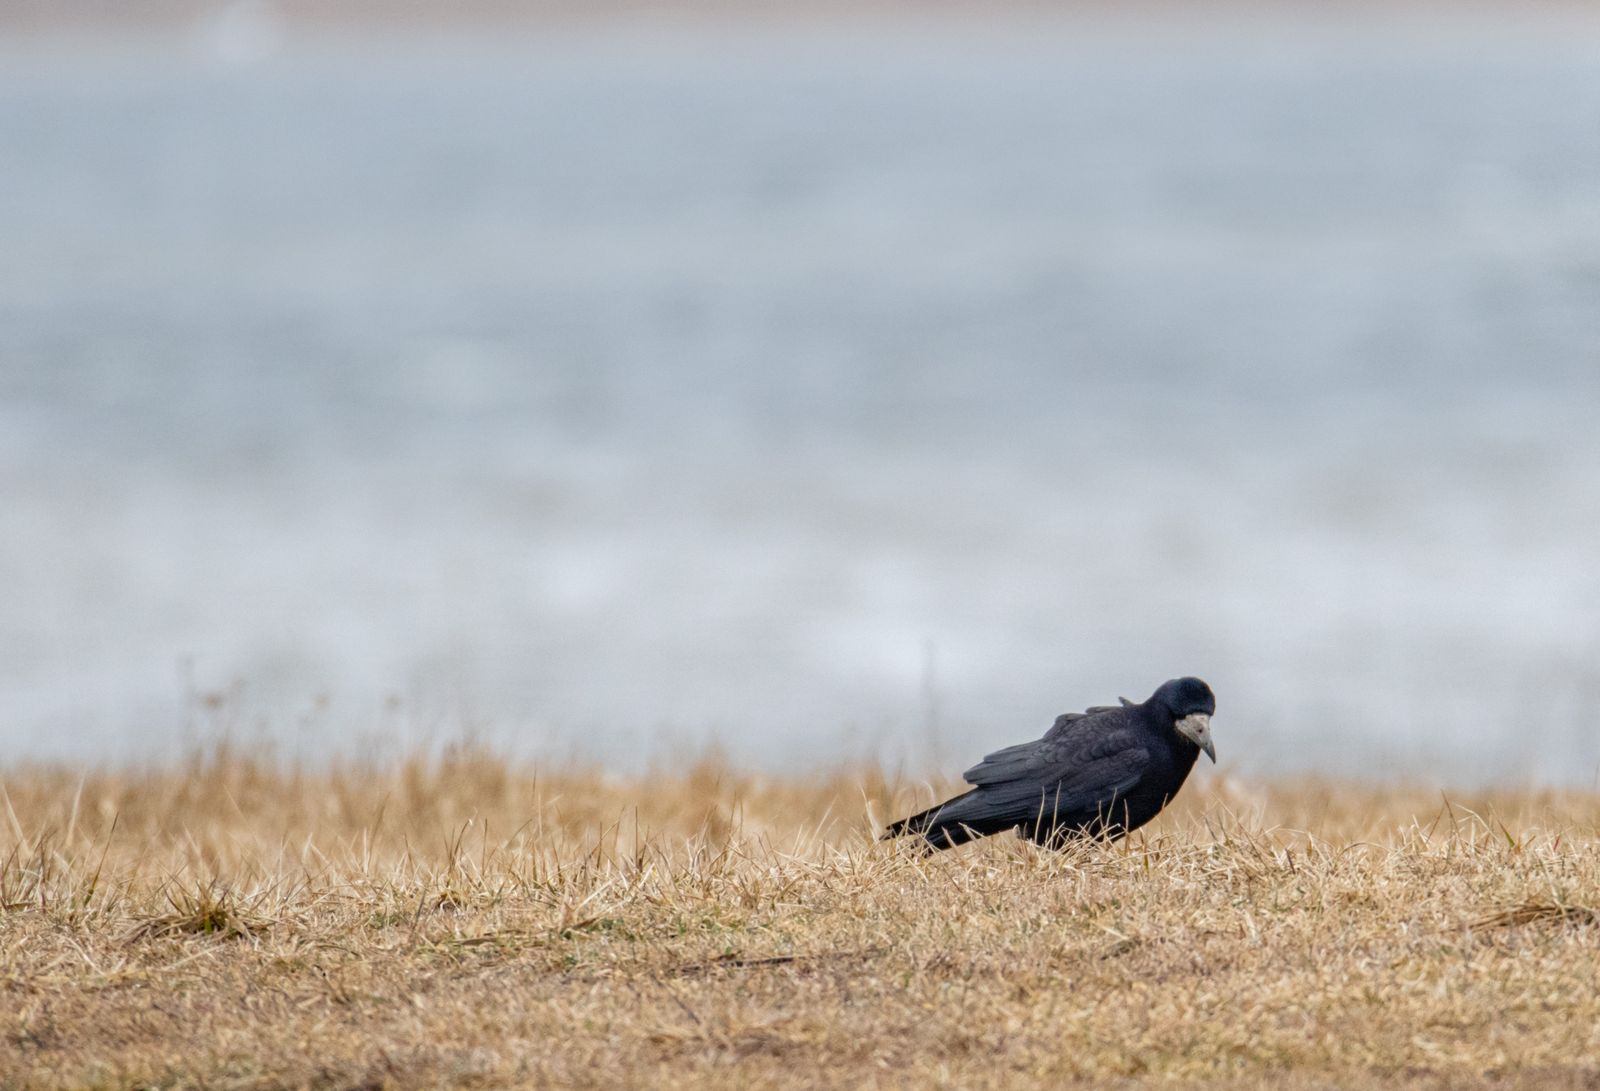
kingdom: Animalia
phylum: Chordata
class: Aves
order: Passeriformes
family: Corvidae
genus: Corvus
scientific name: Corvus frugilegus
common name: Rook
